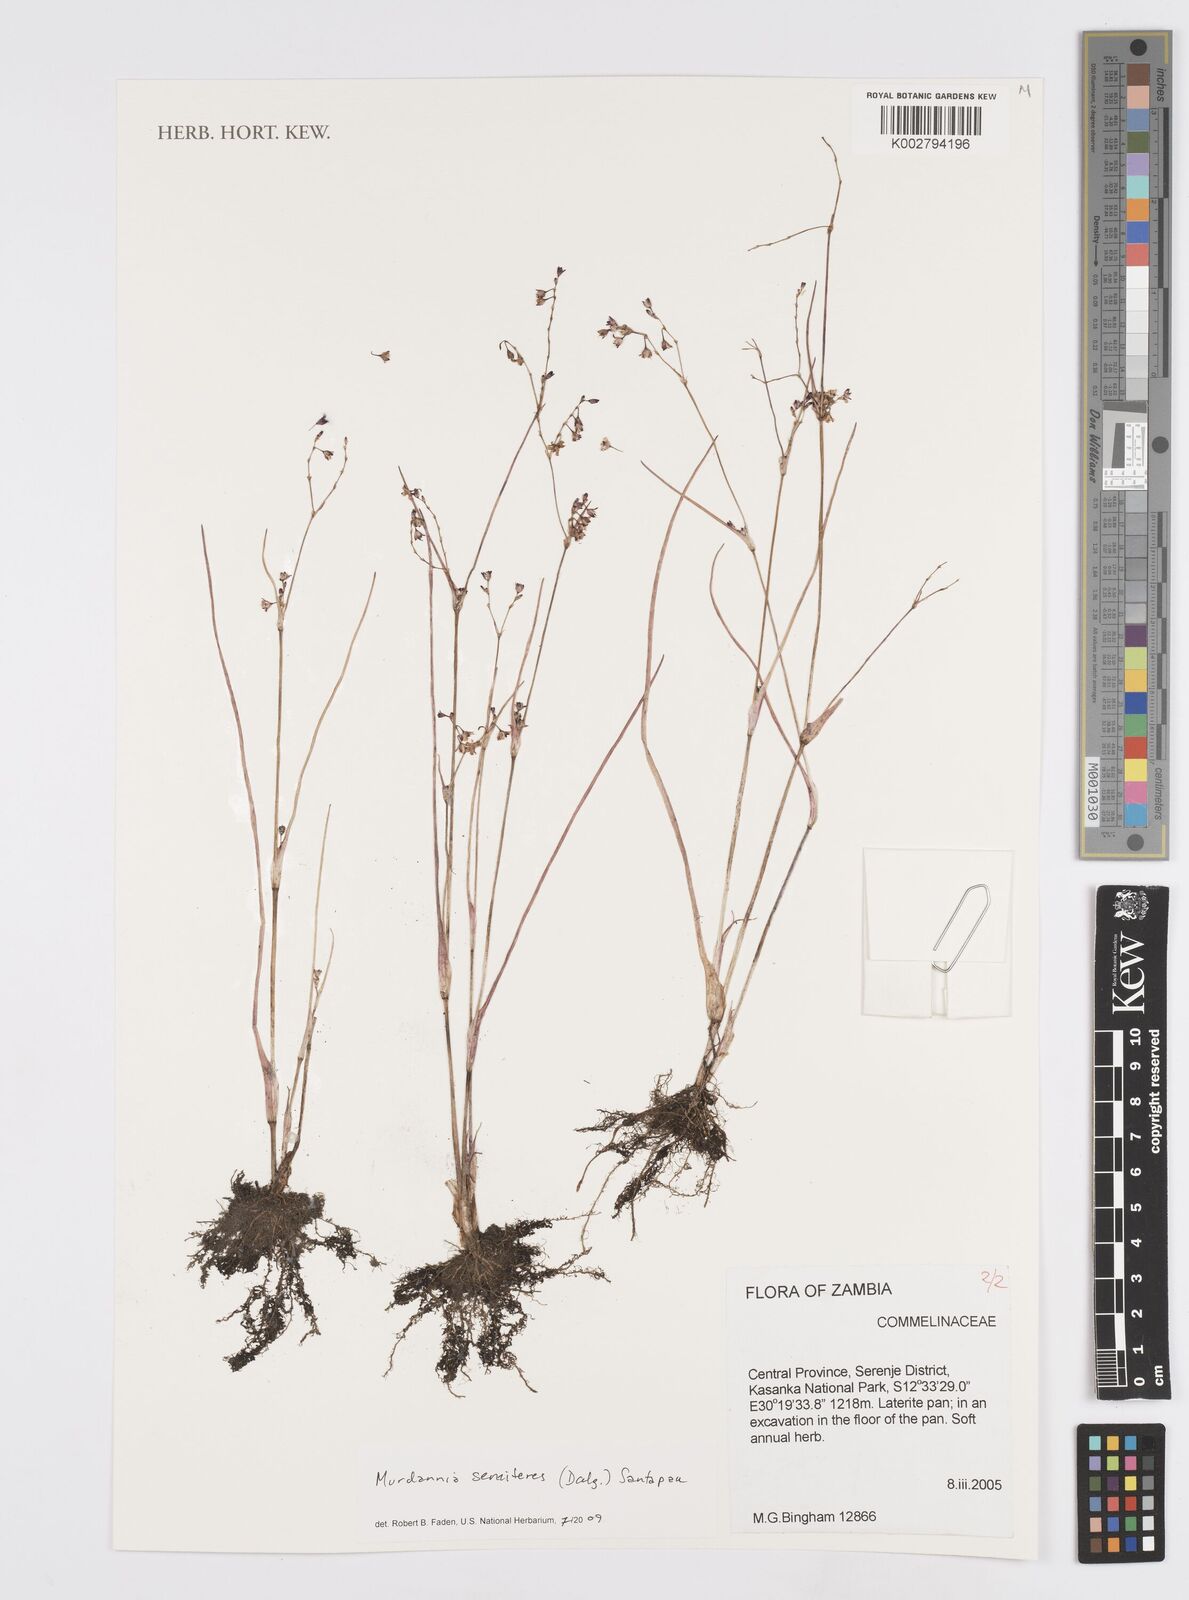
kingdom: Plantae
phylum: Tracheophyta
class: Liliopsida
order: Commelinales
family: Commelinaceae
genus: Murdannia
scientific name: Murdannia semiteres
